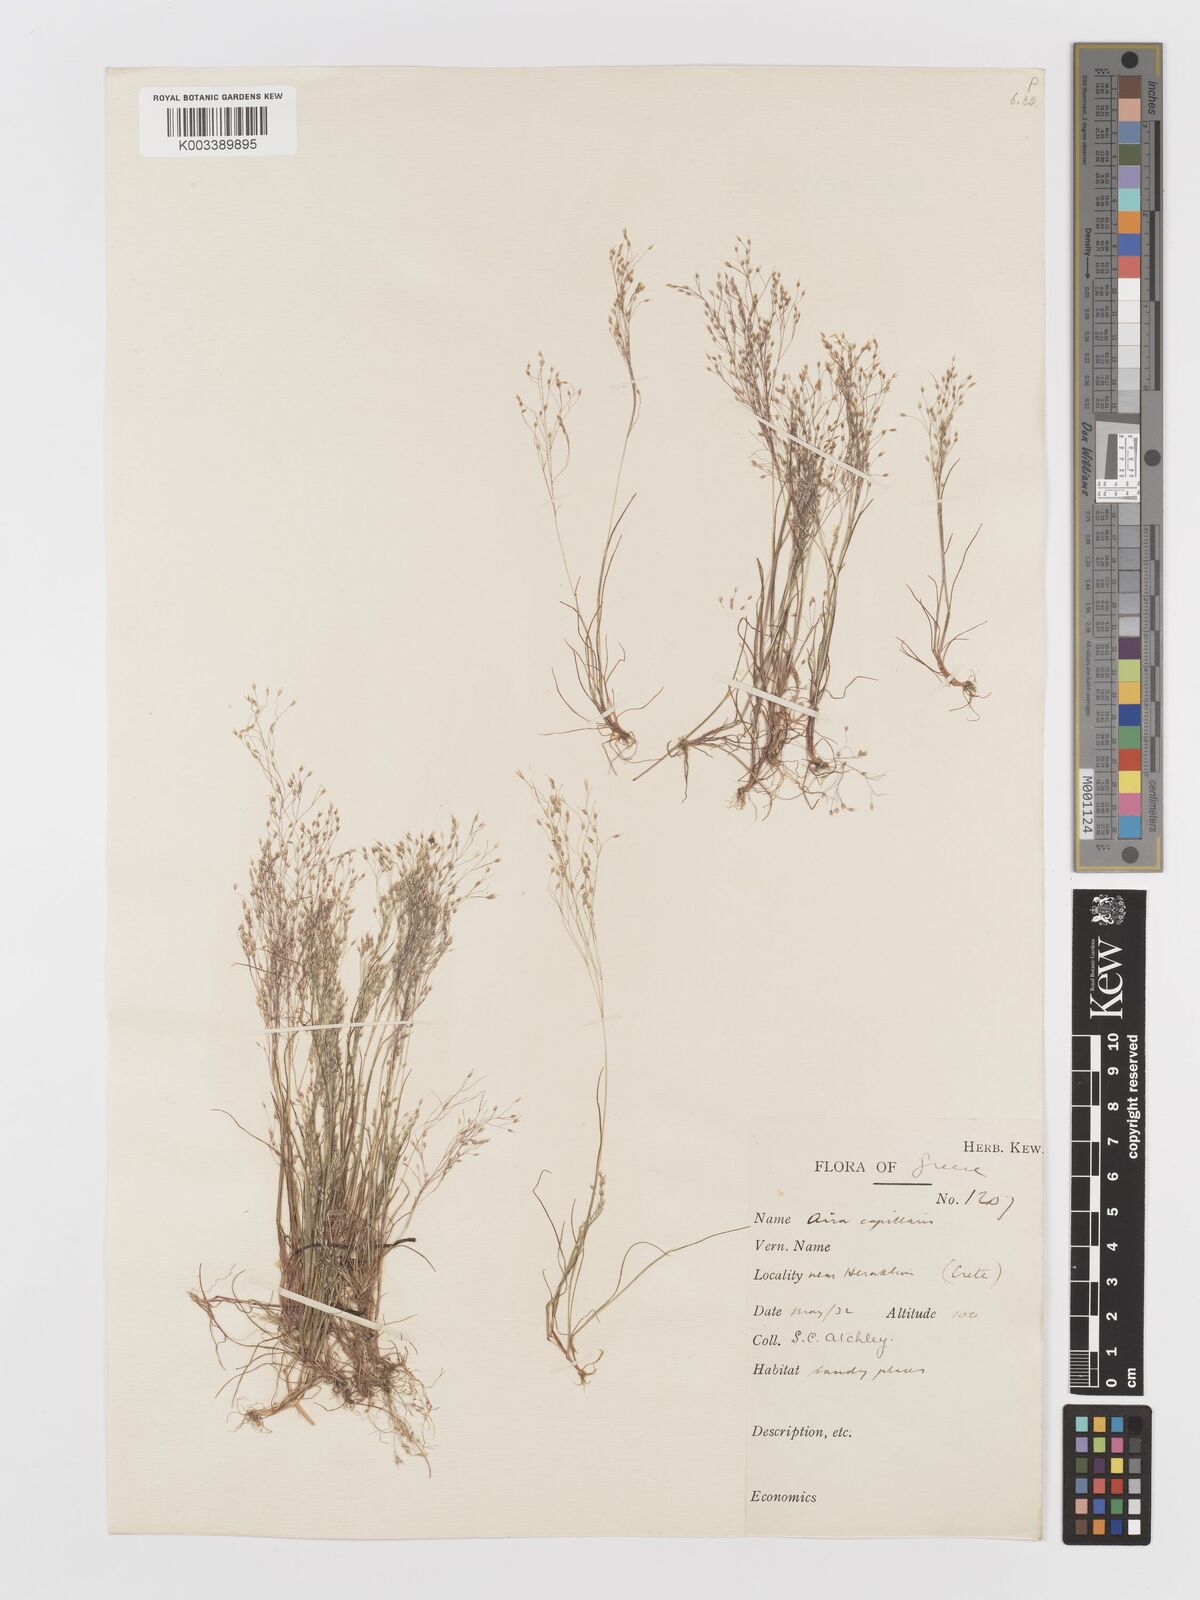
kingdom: Plantae
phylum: Tracheophyta
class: Liliopsida
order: Poales
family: Poaceae
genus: Aira
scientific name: Aira elegans
